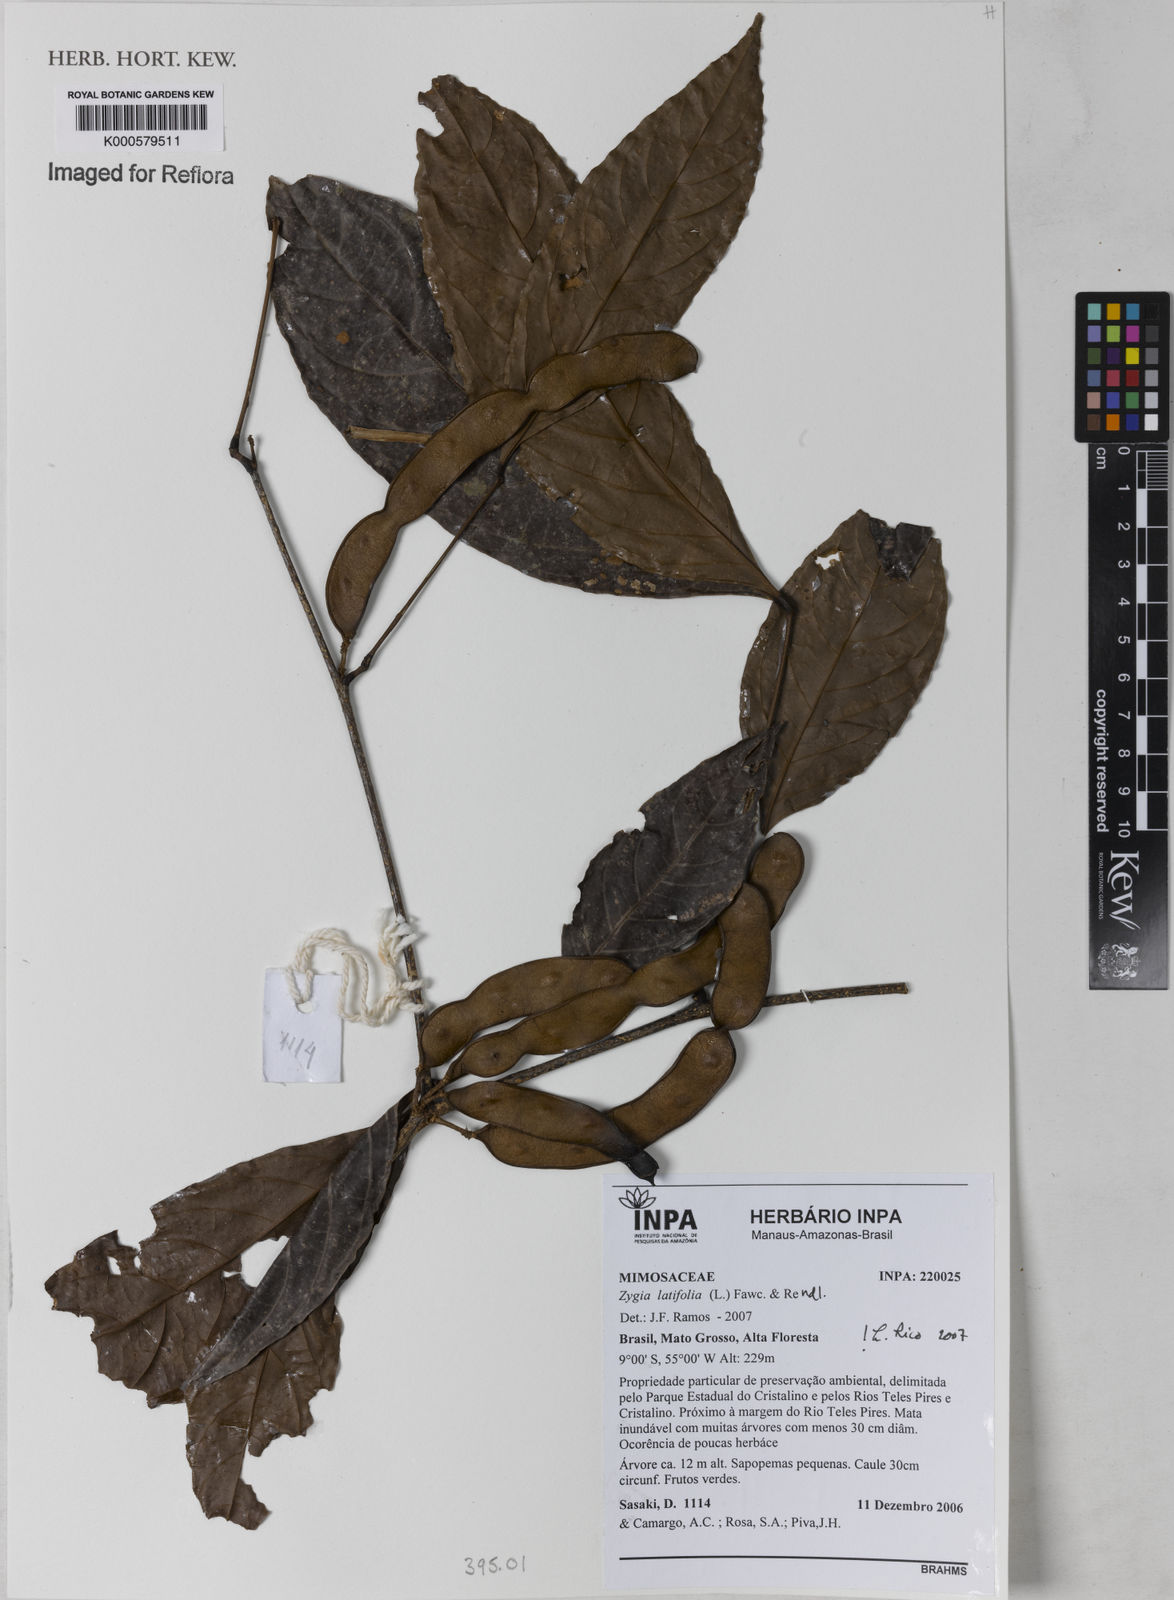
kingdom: Plantae
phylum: Tracheophyta
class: Magnoliopsida
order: Fabales
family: Fabaceae
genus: Zygia
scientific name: Zygia latifolia
